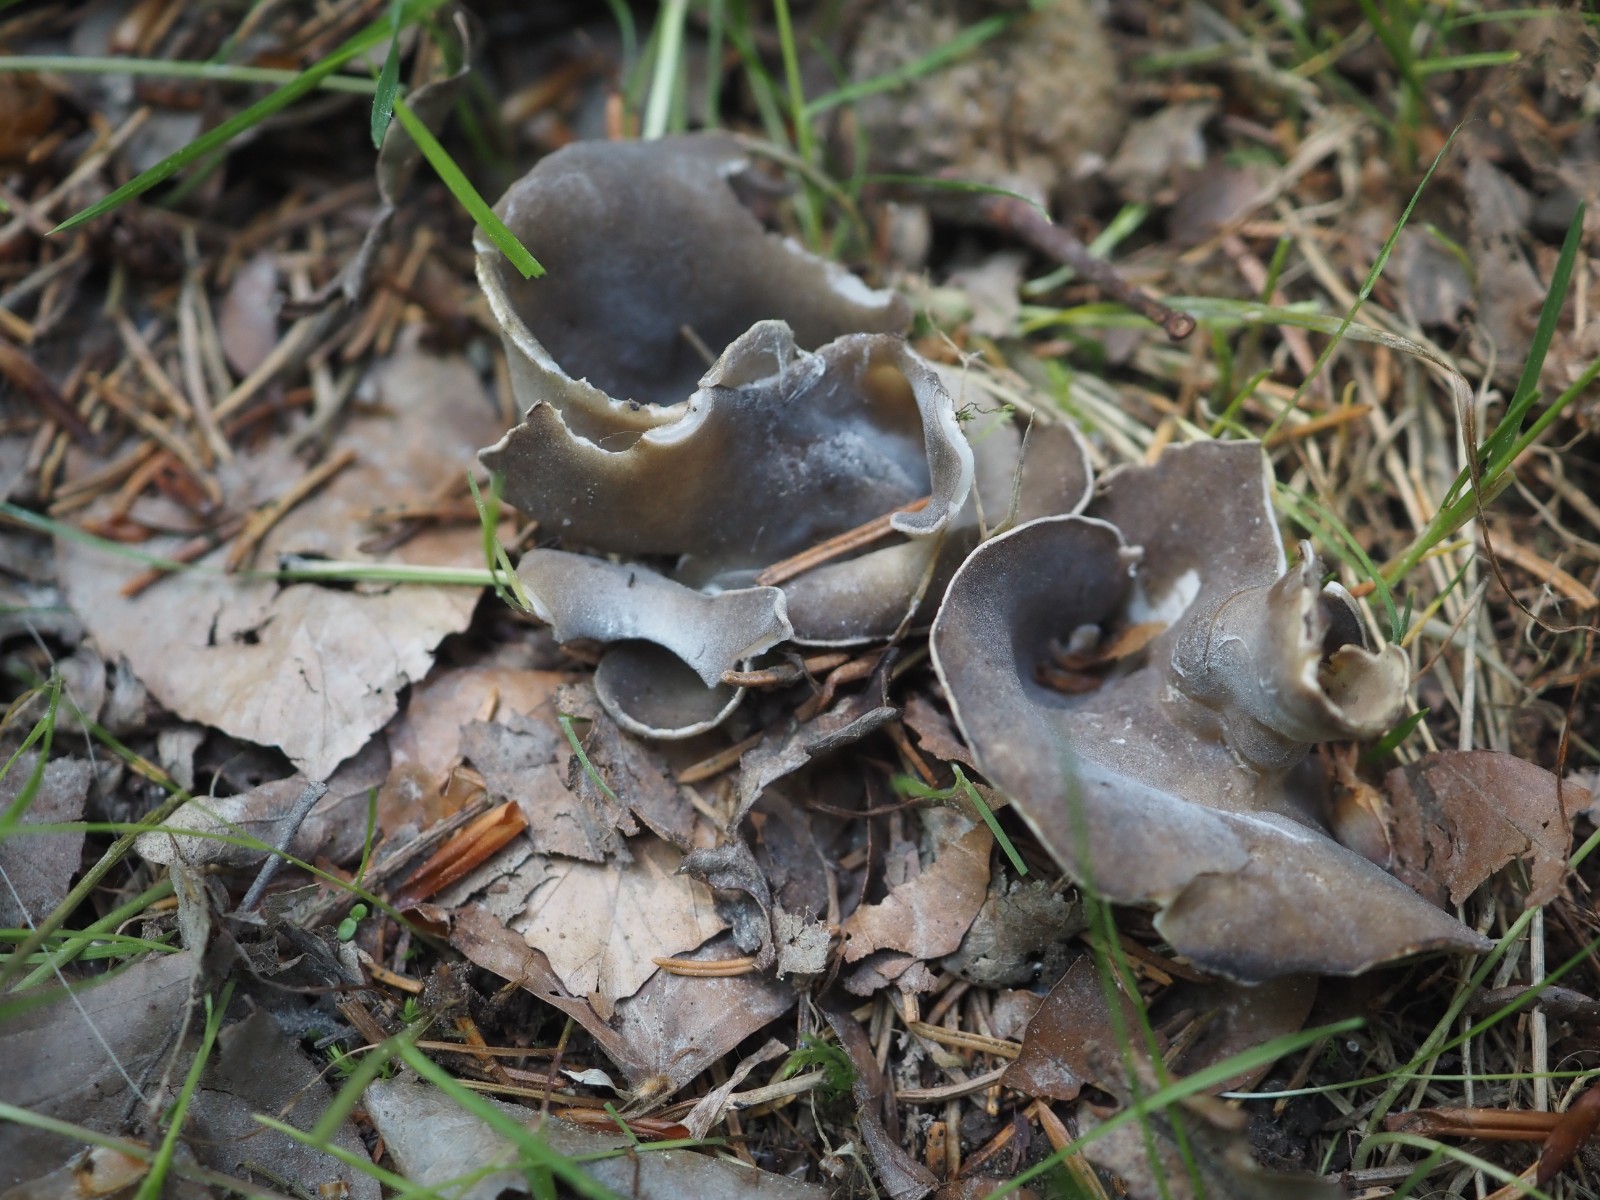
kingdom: Fungi
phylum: Ascomycota
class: Pezizomycetes
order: Pezizales
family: Helvellaceae
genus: Dissingia
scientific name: Dissingia confusa
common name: gran-foldhat
